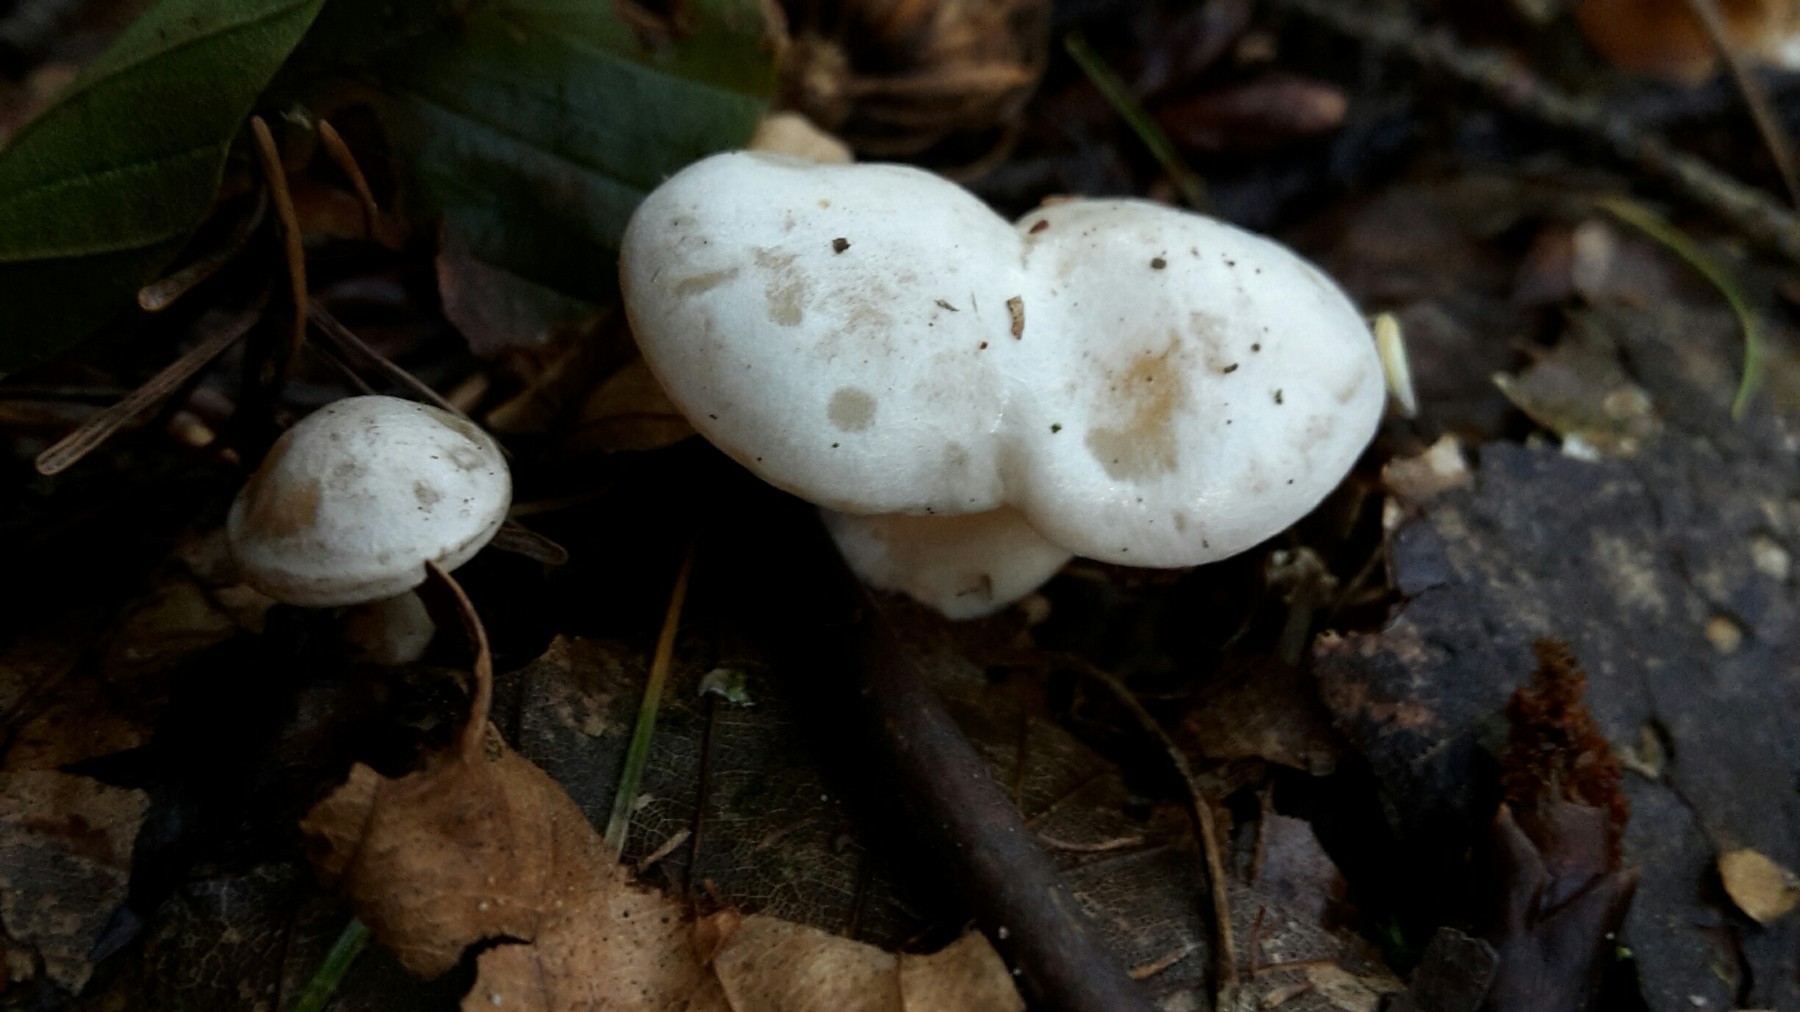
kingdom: Fungi
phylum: Basidiomycota
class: Agaricomycetes
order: Agaricales
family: Tricholomataceae
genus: Clitocybe
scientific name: Clitocybe phyllophila
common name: løv-tragthat
